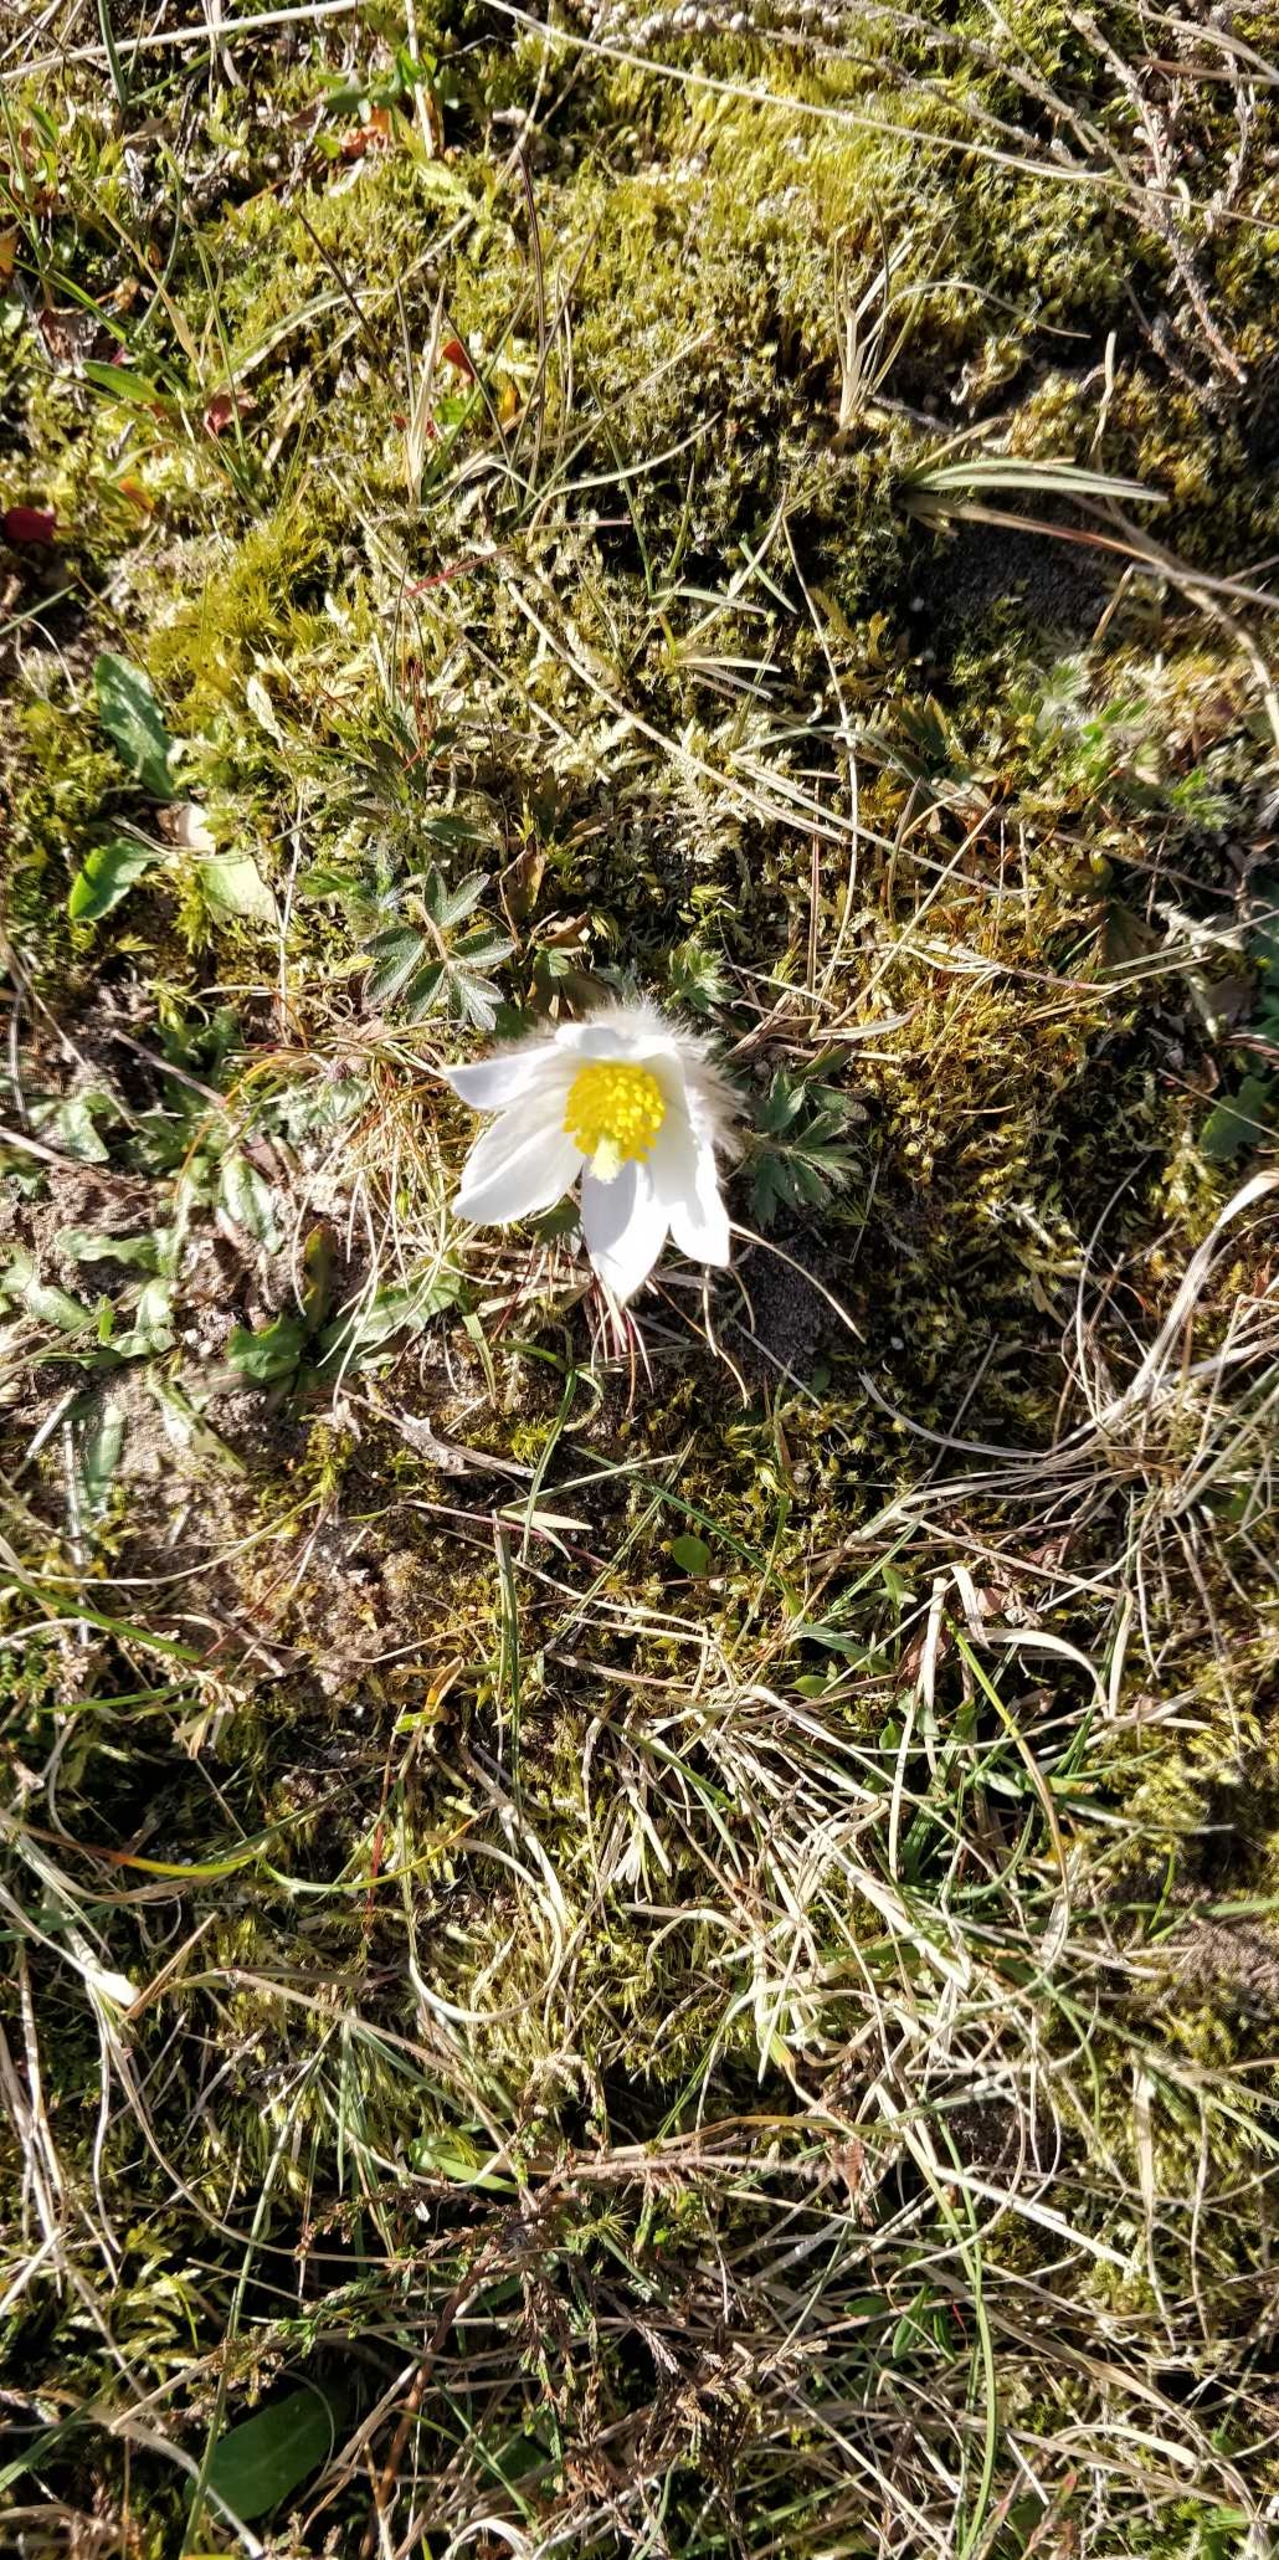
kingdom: Plantae
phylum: Tracheophyta
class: Magnoliopsida
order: Ranunculales
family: Ranunculaceae
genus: Pulsatilla
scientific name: Pulsatilla vernalis
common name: Vår-kobjælde
